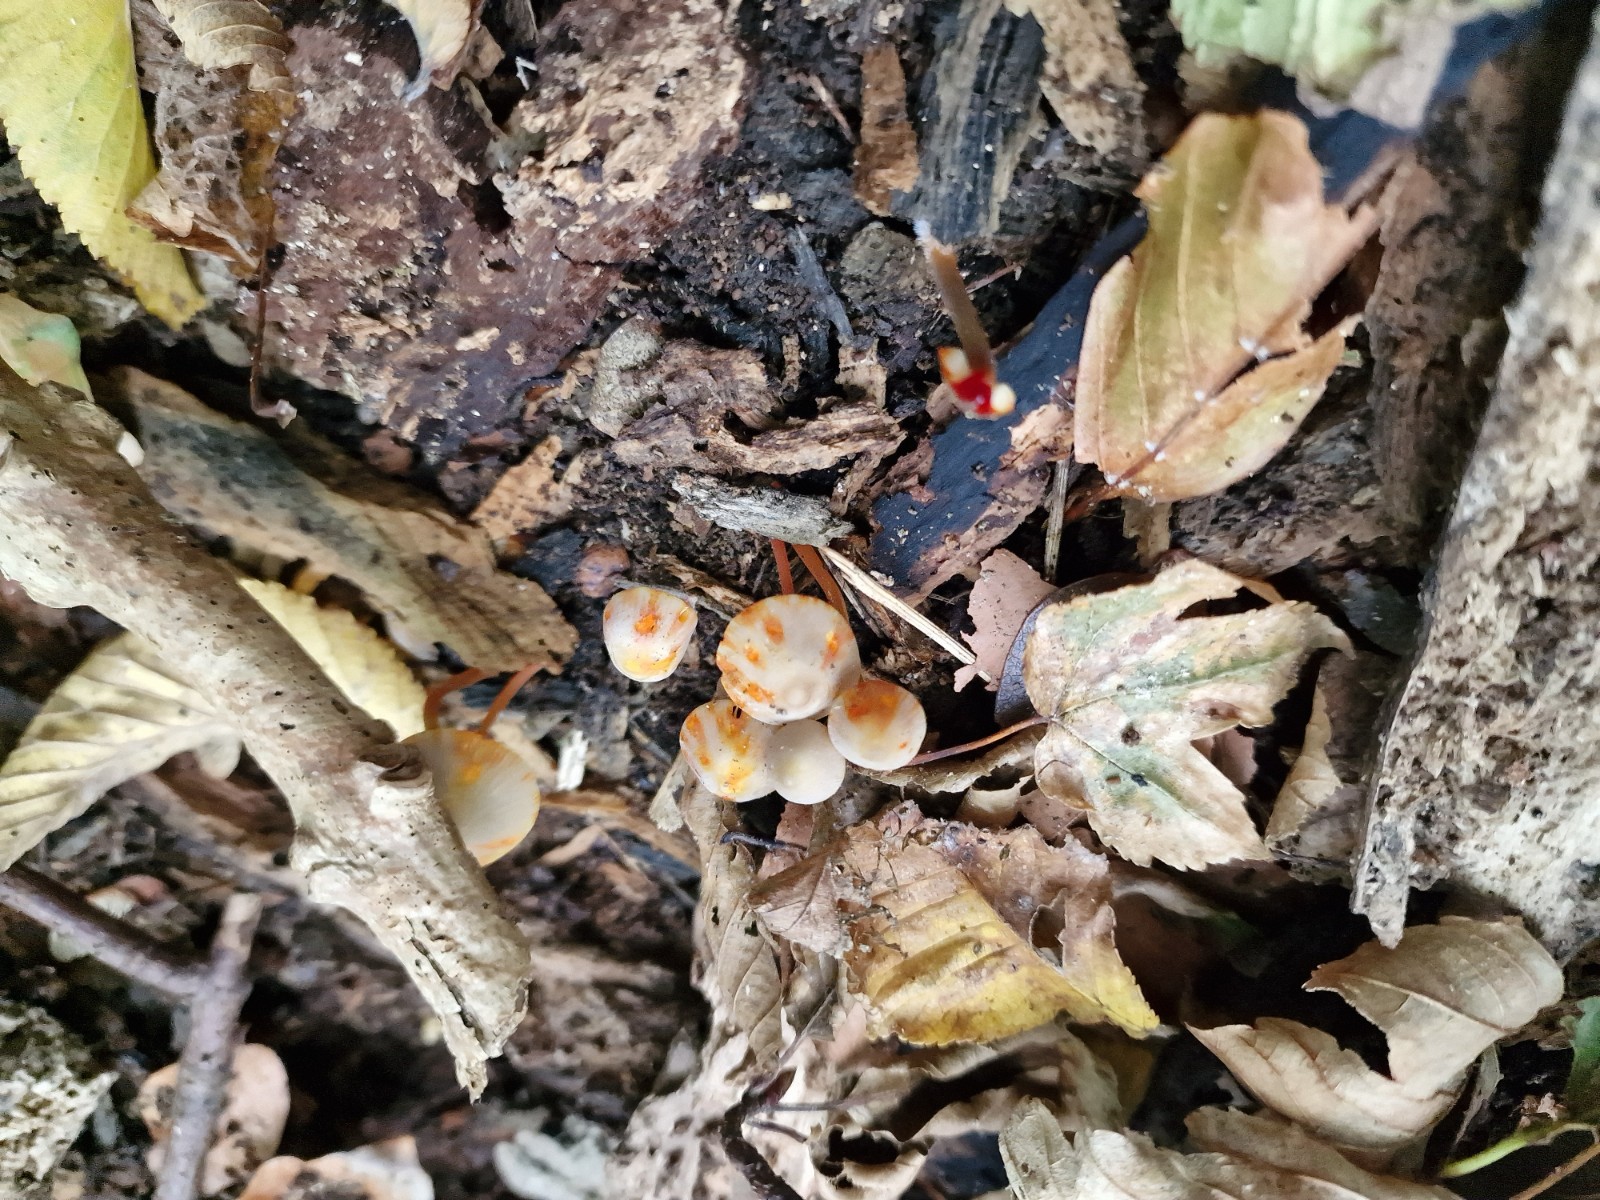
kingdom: Fungi
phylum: Basidiomycota
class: Agaricomycetes
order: Agaricales
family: Mycenaceae
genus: Mycena
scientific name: Mycena crocata
